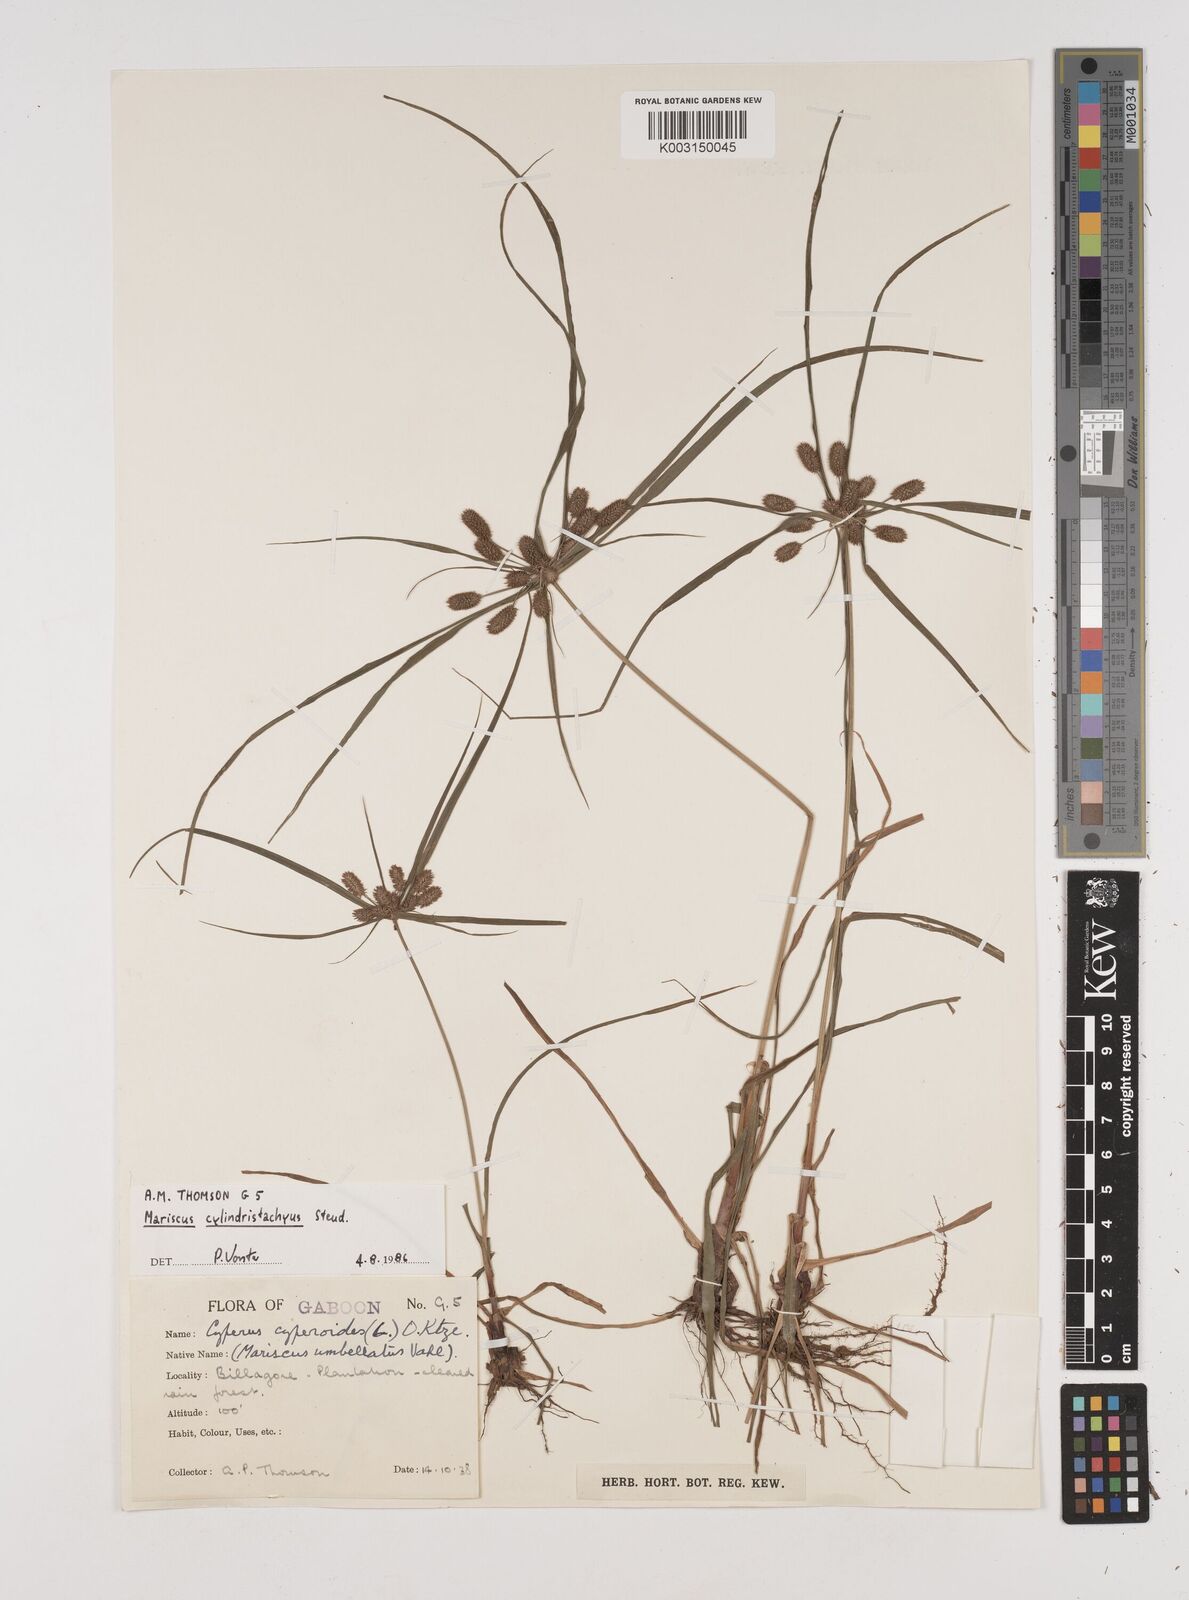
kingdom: Plantae
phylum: Tracheophyta
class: Liliopsida
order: Poales
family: Cyperaceae
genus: Cyperus
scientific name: Cyperus cyperoides
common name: Pacific island flat sedge
